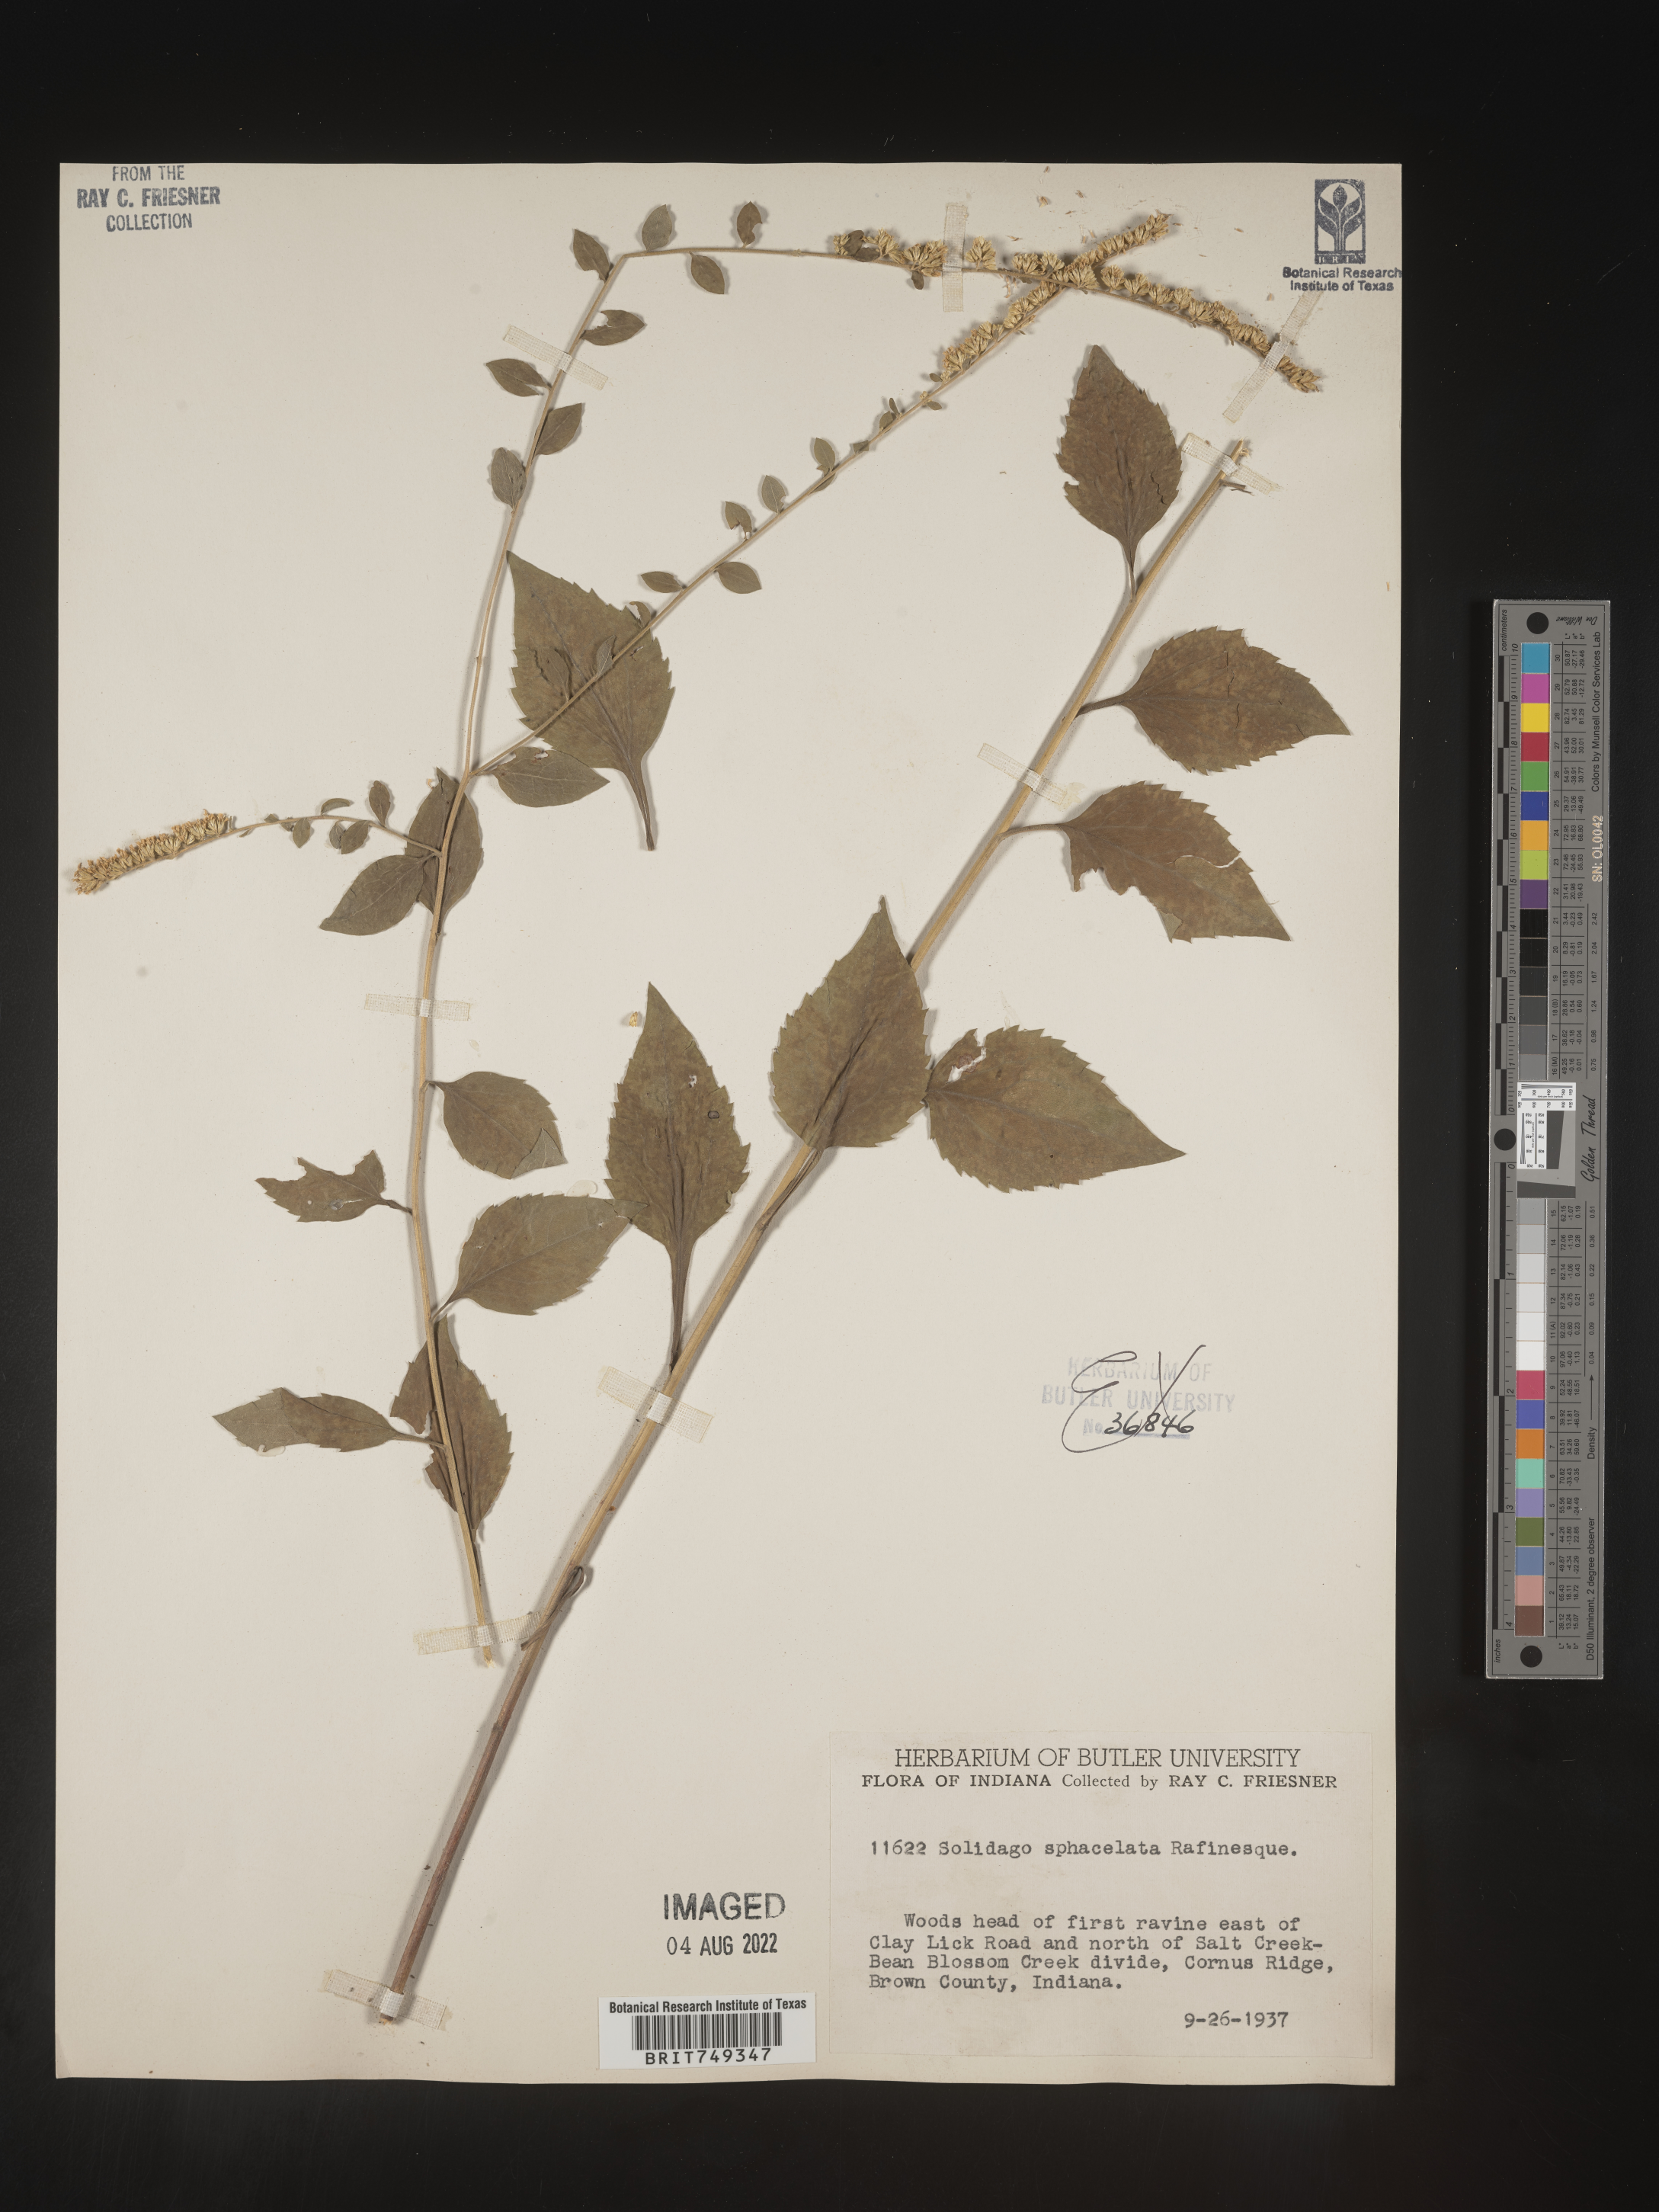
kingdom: Plantae
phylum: Tracheophyta
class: Magnoliopsida
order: Asterales
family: Asteraceae
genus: Solidago
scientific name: Solidago sphacelata
